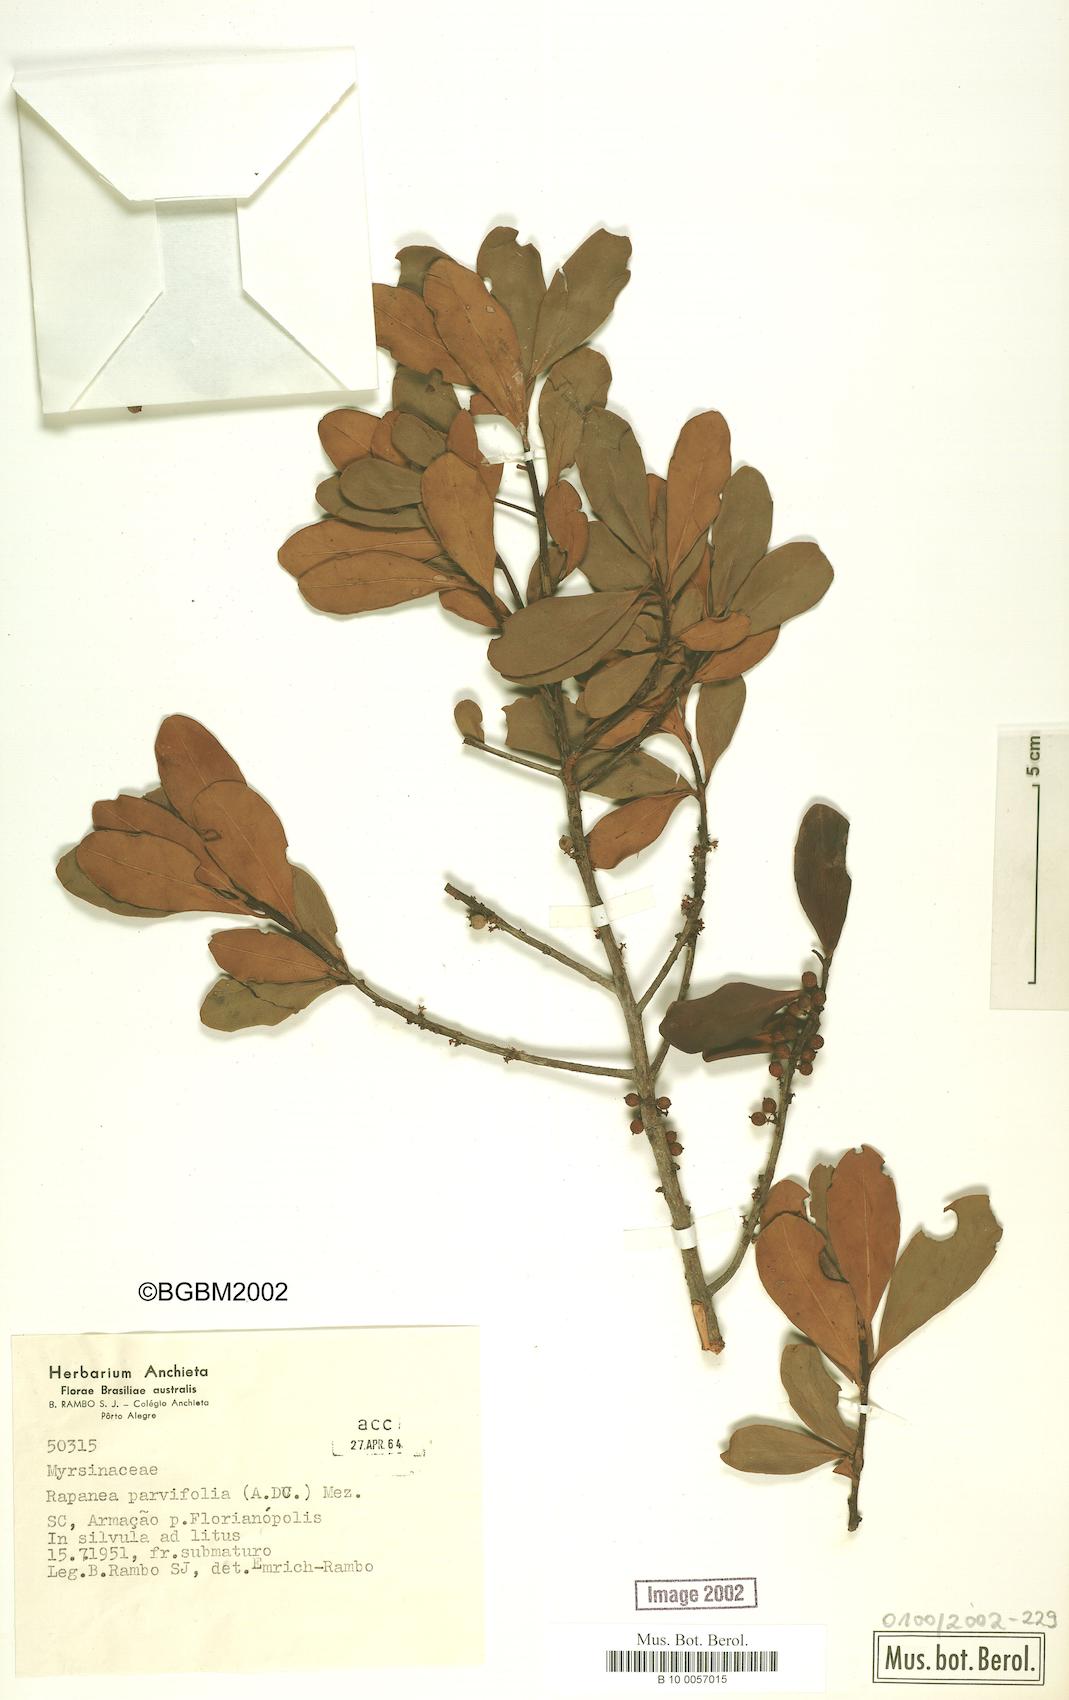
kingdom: Plantae
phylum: Tracheophyta
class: Magnoliopsida
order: Ericales
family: Primulaceae
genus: Myrsine
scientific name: Myrsine parvifolia
